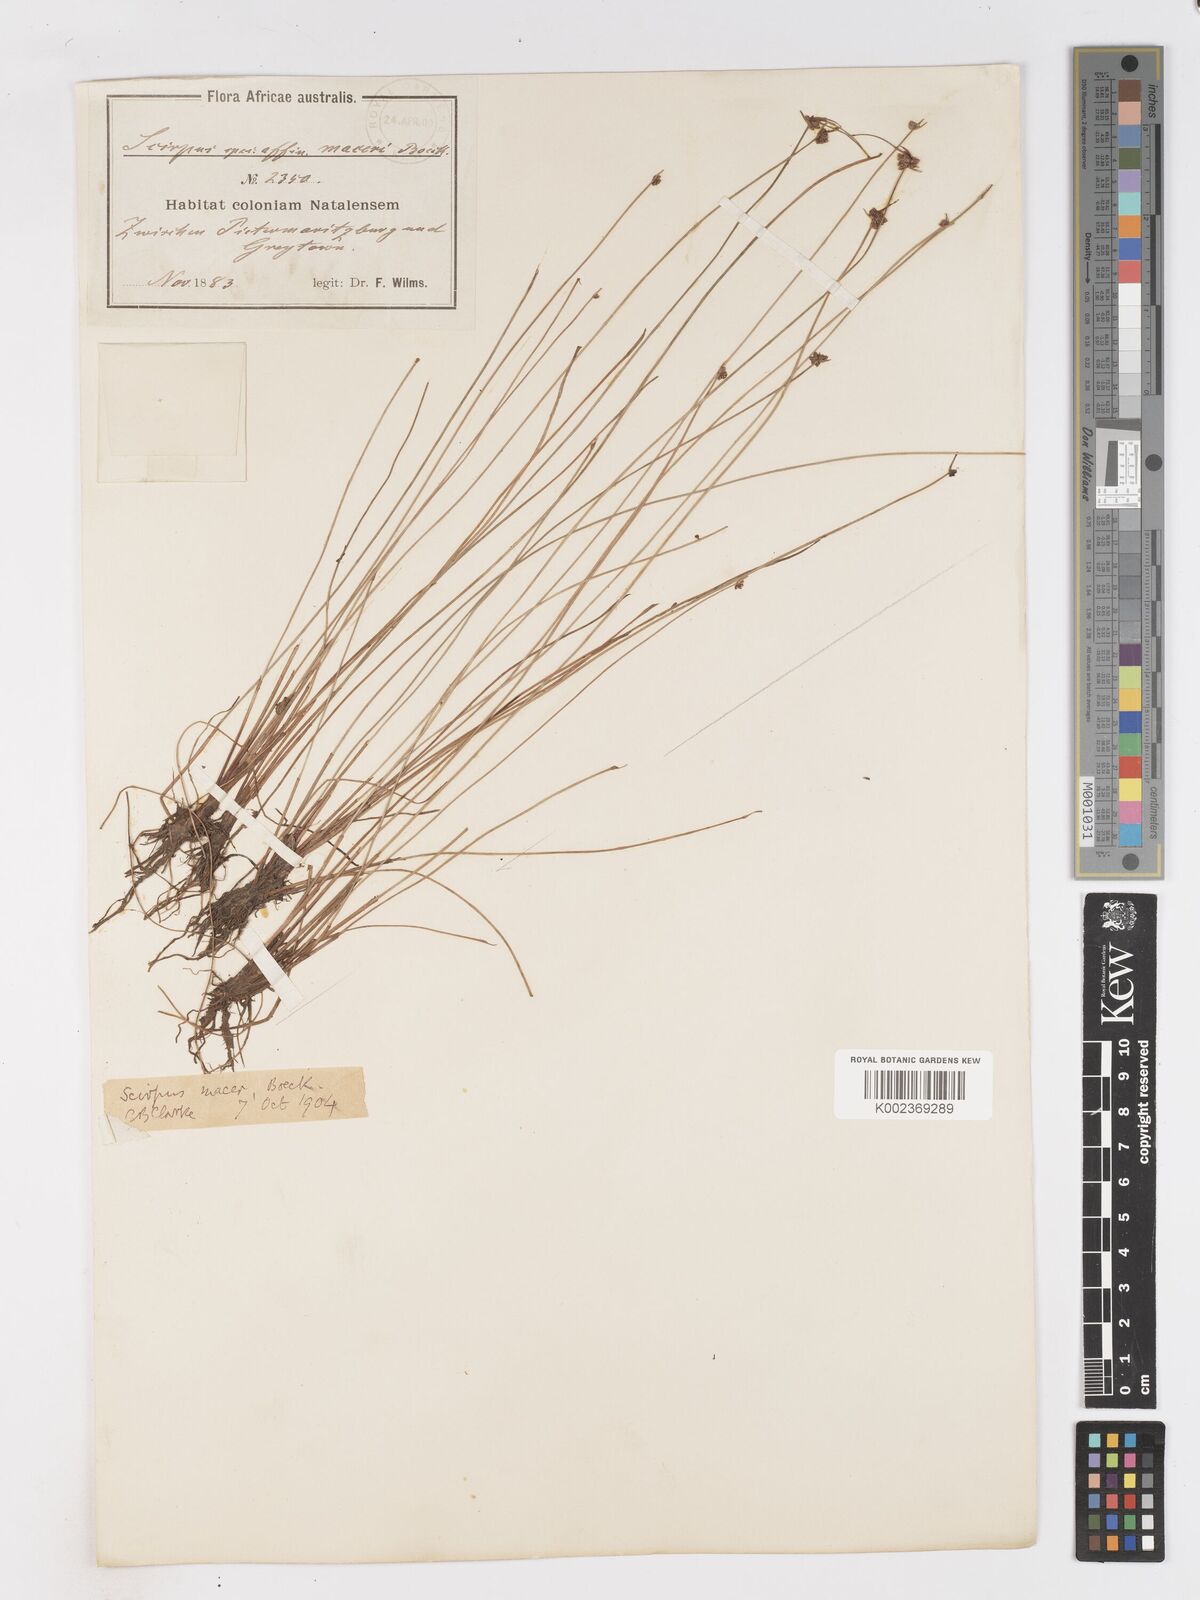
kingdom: Plantae
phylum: Tracheophyta
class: Liliopsida
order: Poales
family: Cyperaceae
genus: Isolepis
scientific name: Isolepis costata
